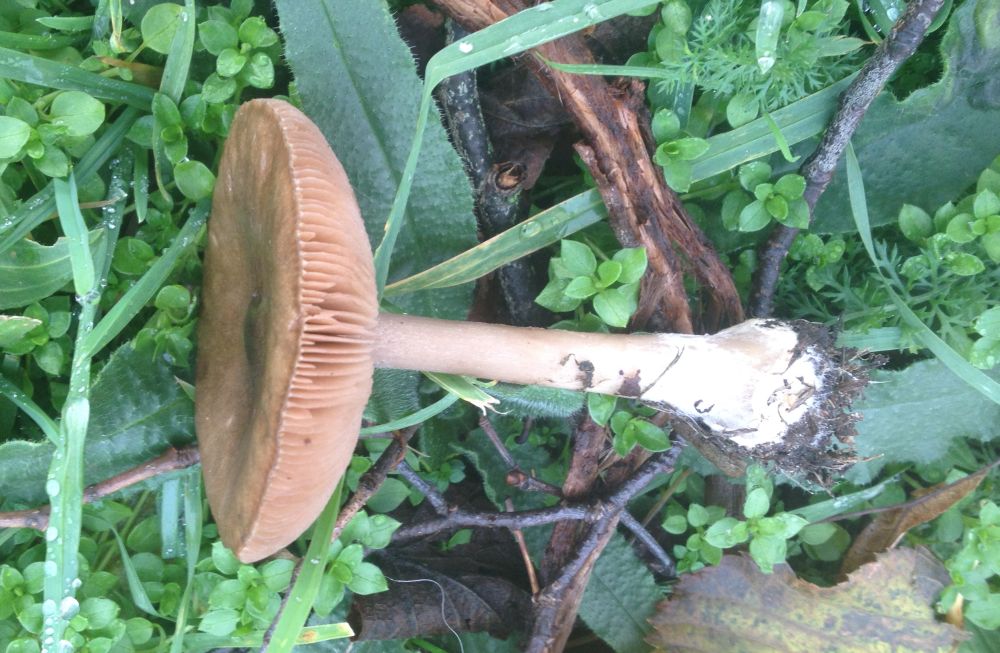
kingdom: Fungi
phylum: Basidiomycota
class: Agaricomycetes
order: Agaricales
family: Tricholomataceae
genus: Melanoleuca
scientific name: Melanoleuca cognata
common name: gyldengrå munkehat
